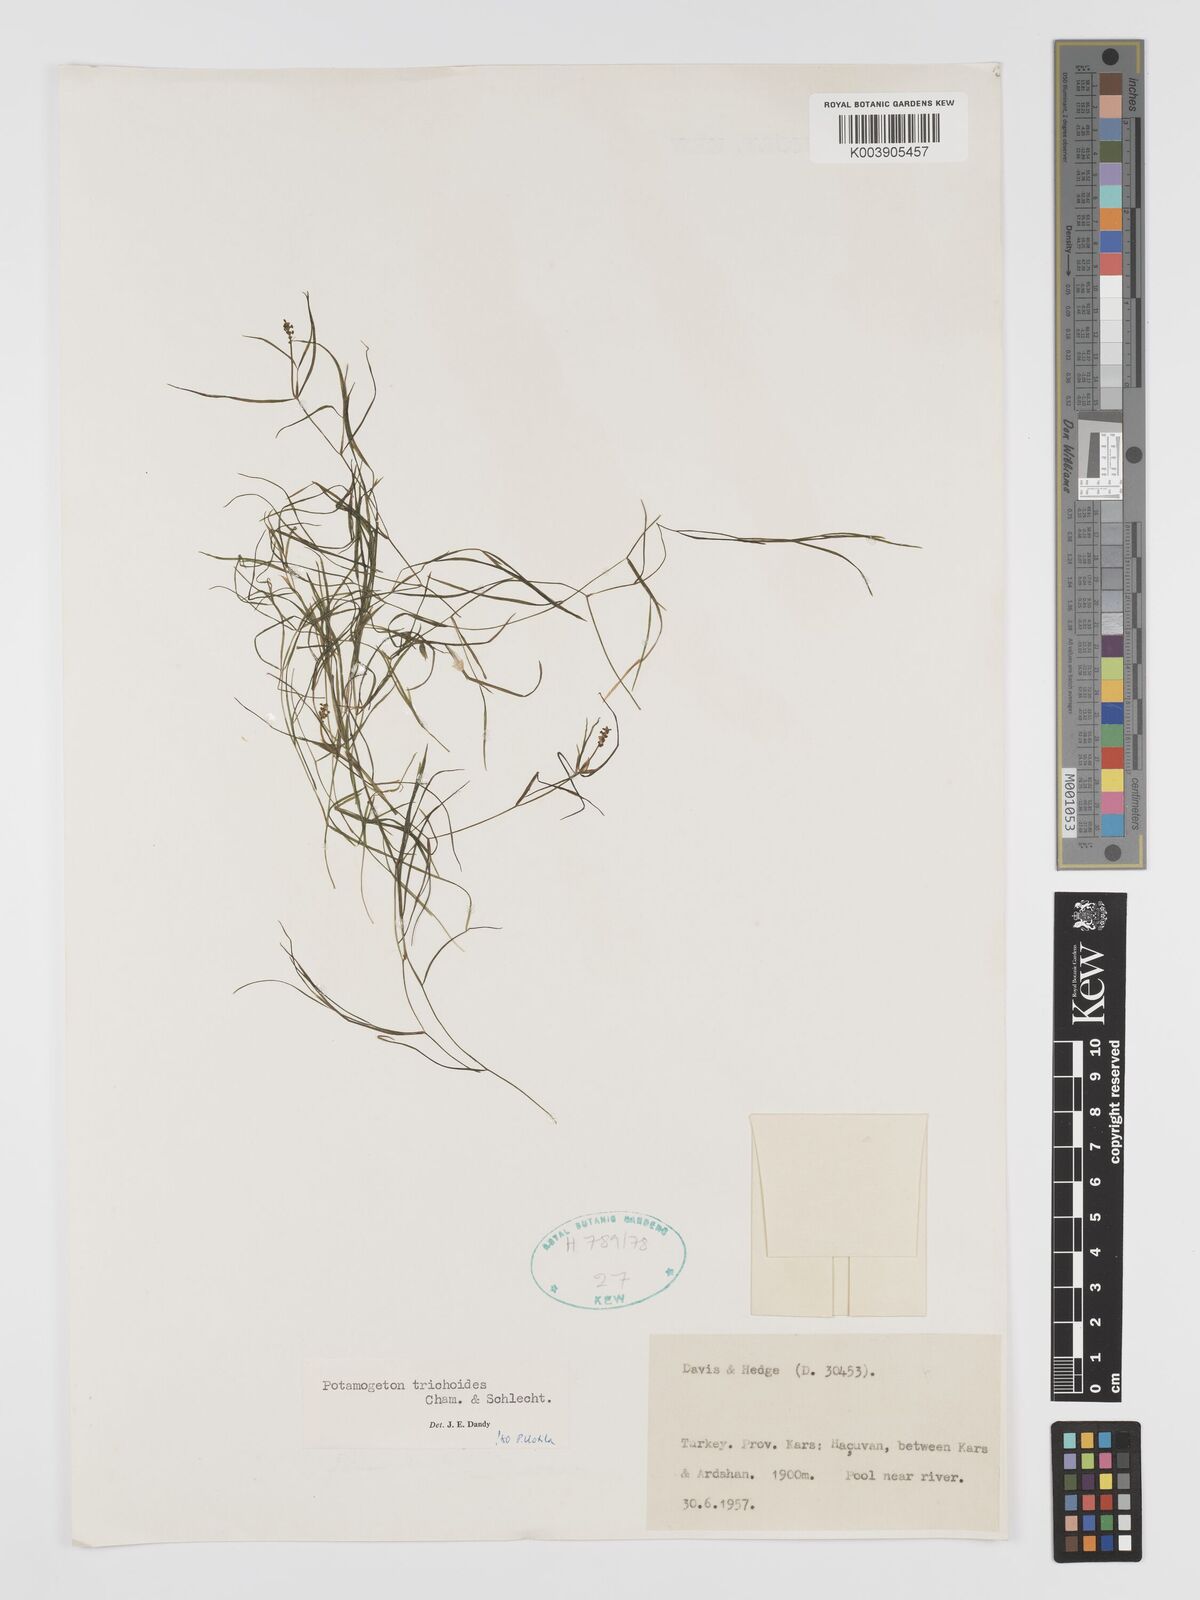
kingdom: Plantae
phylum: Tracheophyta
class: Liliopsida
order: Alismatales
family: Potamogetonaceae
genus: Potamogeton
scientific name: Potamogeton trichoides
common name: Hairlike pondweed
